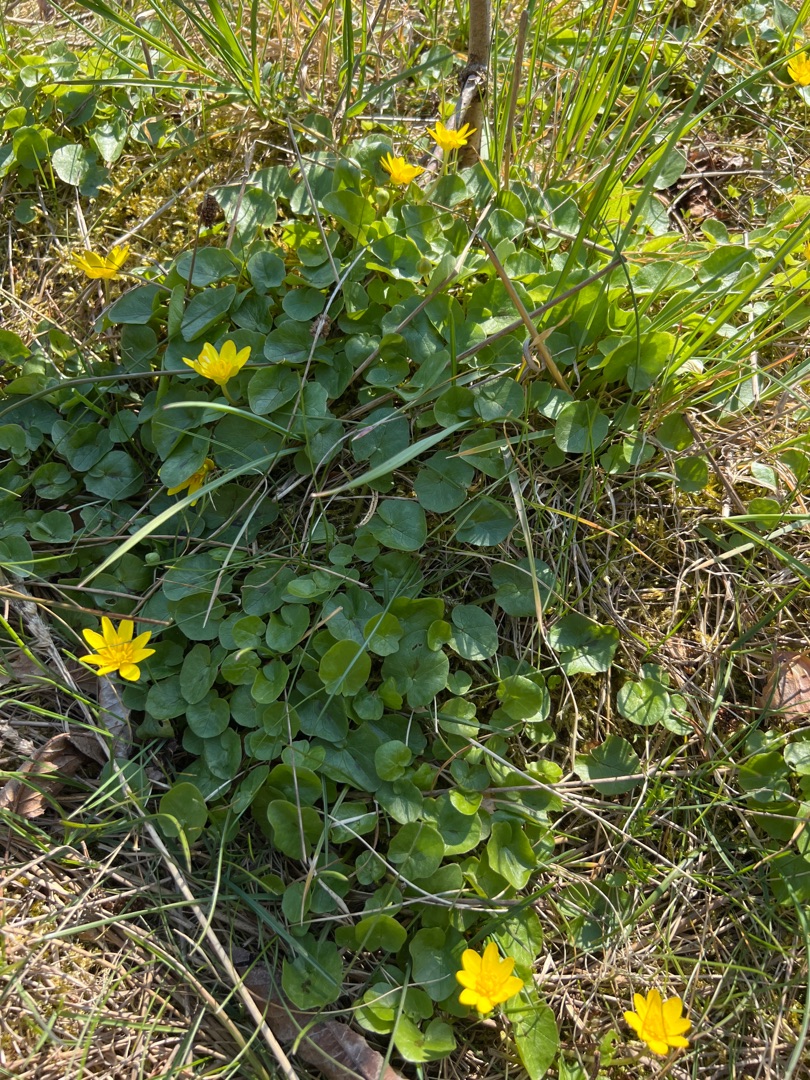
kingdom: Plantae
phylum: Tracheophyta
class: Magnoliopsida
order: Ranunculales
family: Ranunculaceae
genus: Ficaria
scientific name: Ficaria verna
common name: Almindelig vorterod
